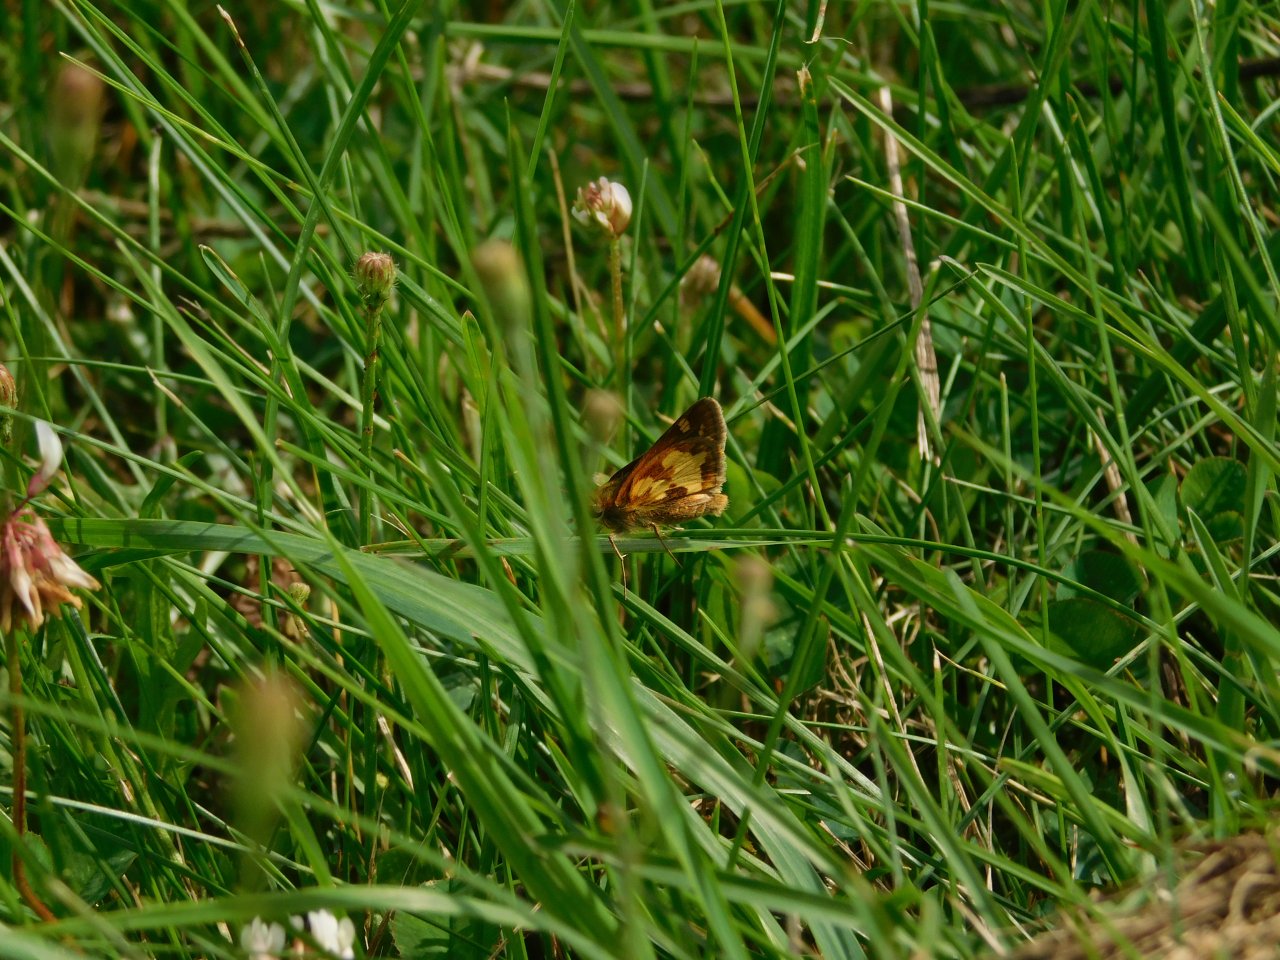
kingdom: Animalia
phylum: Arthropoda
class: Insecta
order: Lepidoptera
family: Hesperiidae
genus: Polites
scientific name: Polites coras
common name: Peck's Skipper
